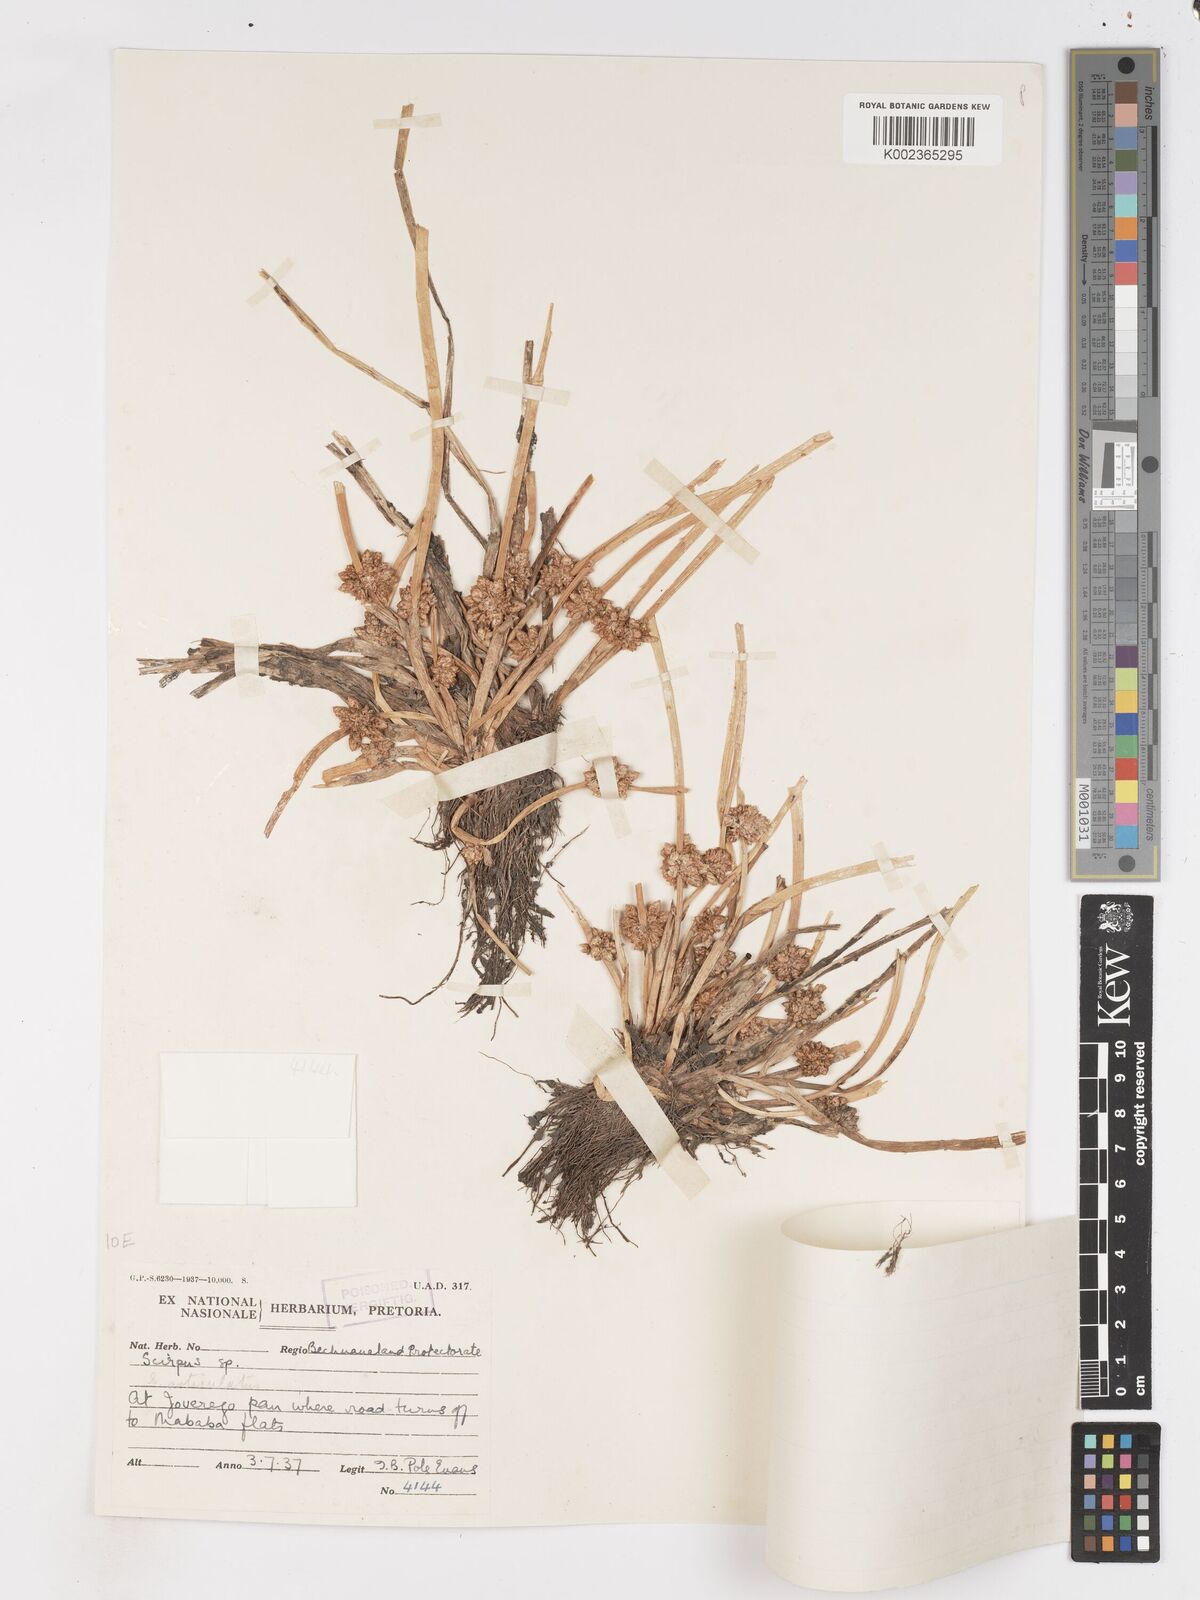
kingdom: Plantae
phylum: Tracheophyta
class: Liliopsida
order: Poales
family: Cyperaceae
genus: Schoenoplectiella
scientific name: Schoenoplectiella senegalensis
